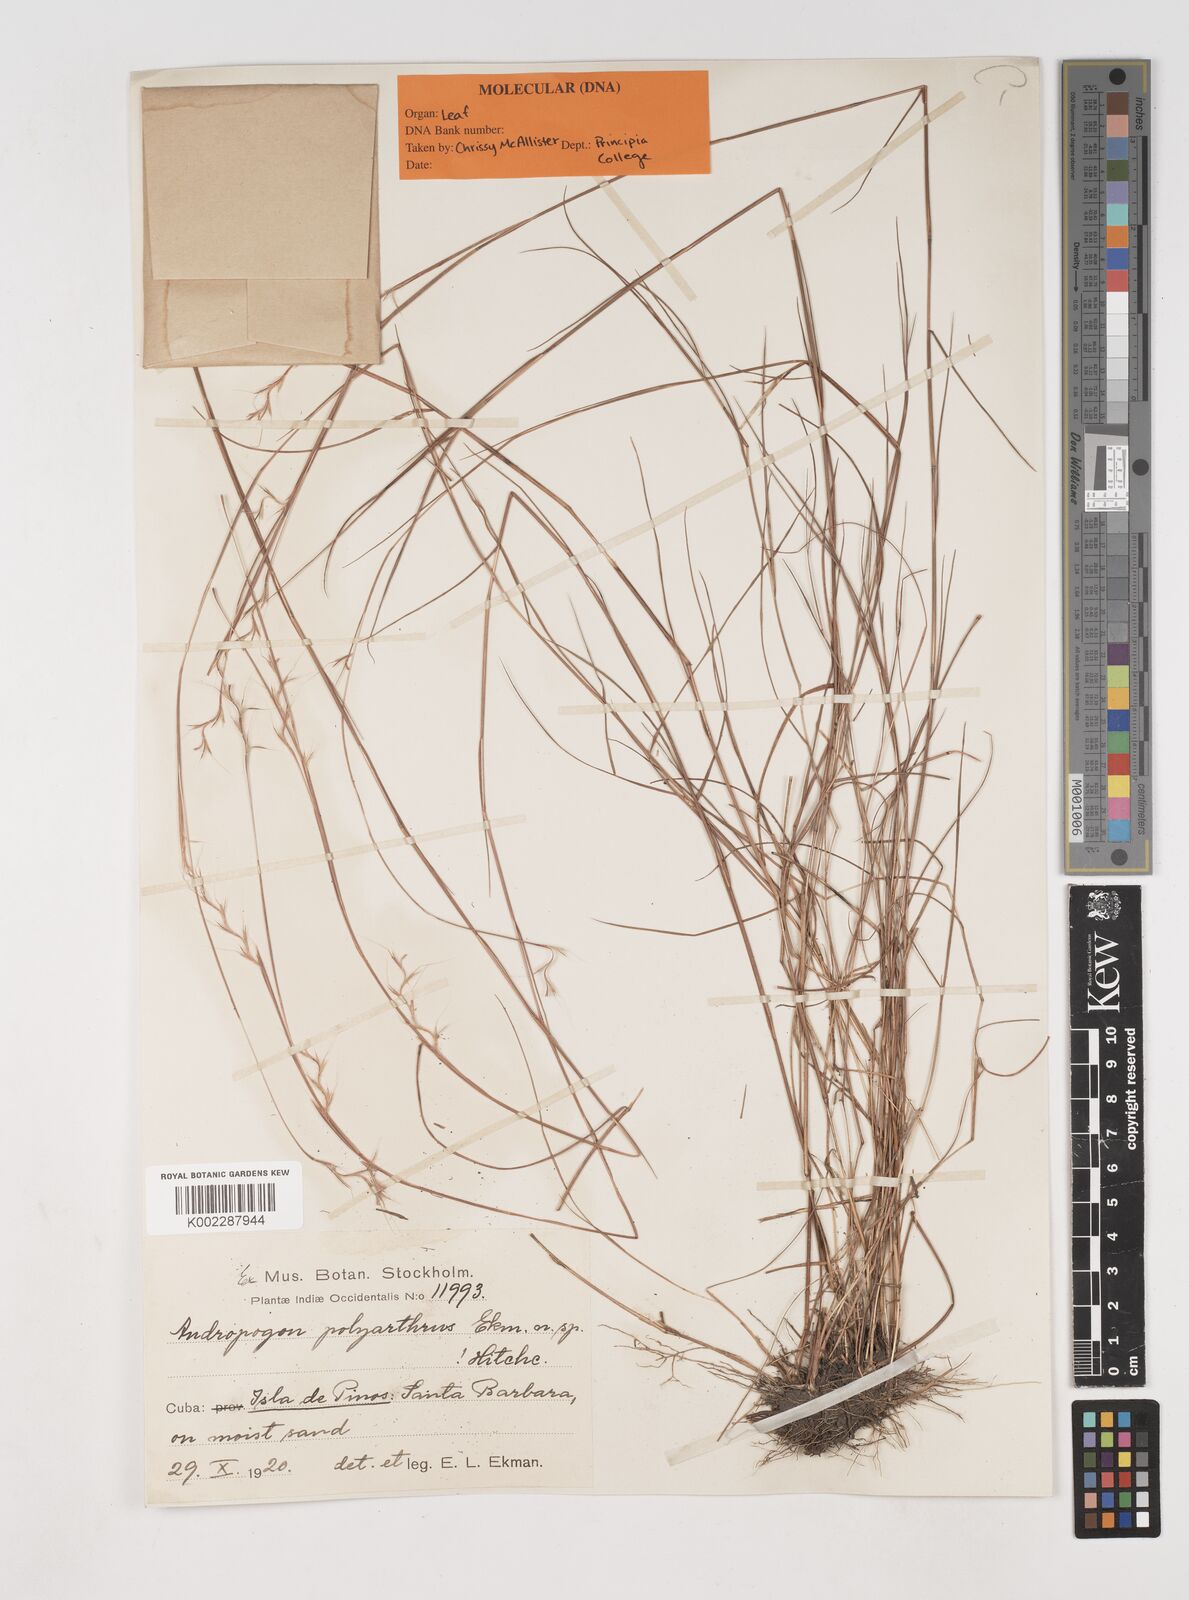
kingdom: Plantae
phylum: Tracheophyta
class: Liliopsida
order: Poales
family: Poaceae
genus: Schizachyrium
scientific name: Schizachyrium cubense
